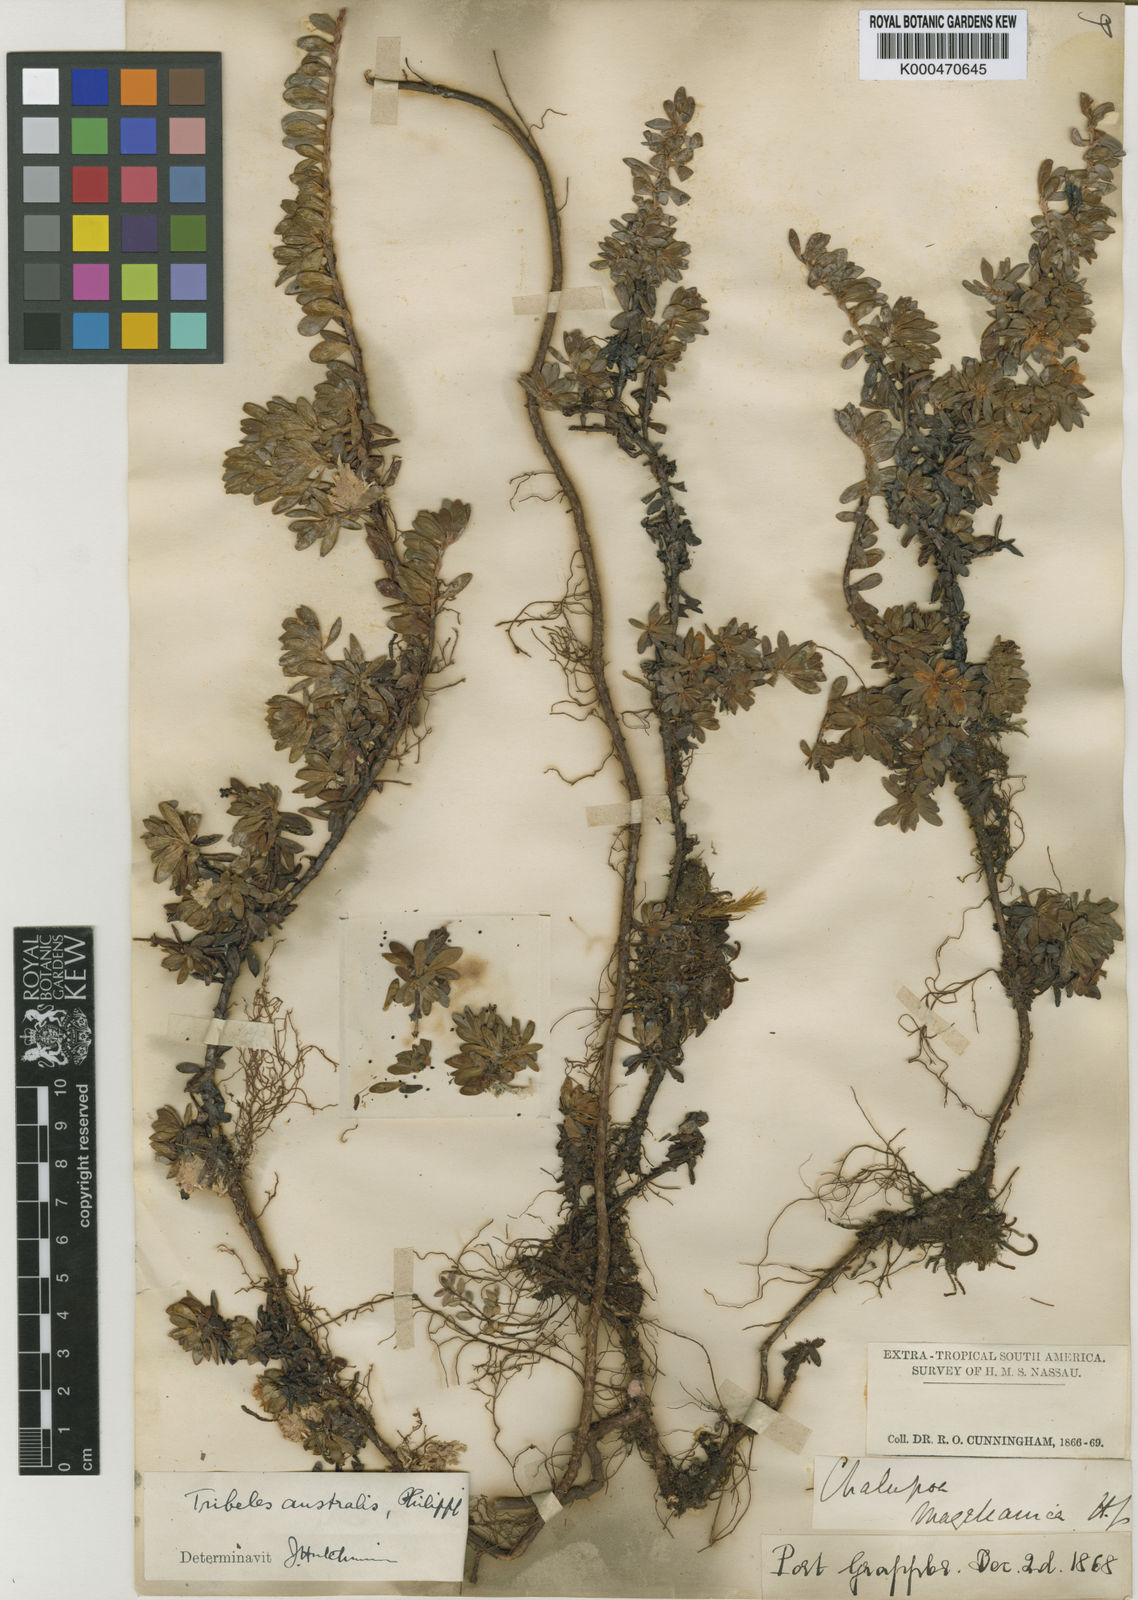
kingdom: Plantae
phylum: Tracheophyta
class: Magnoliopsida
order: Escalloniales
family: Escalloniaceae
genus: Tribeles
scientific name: Tribeles australis
